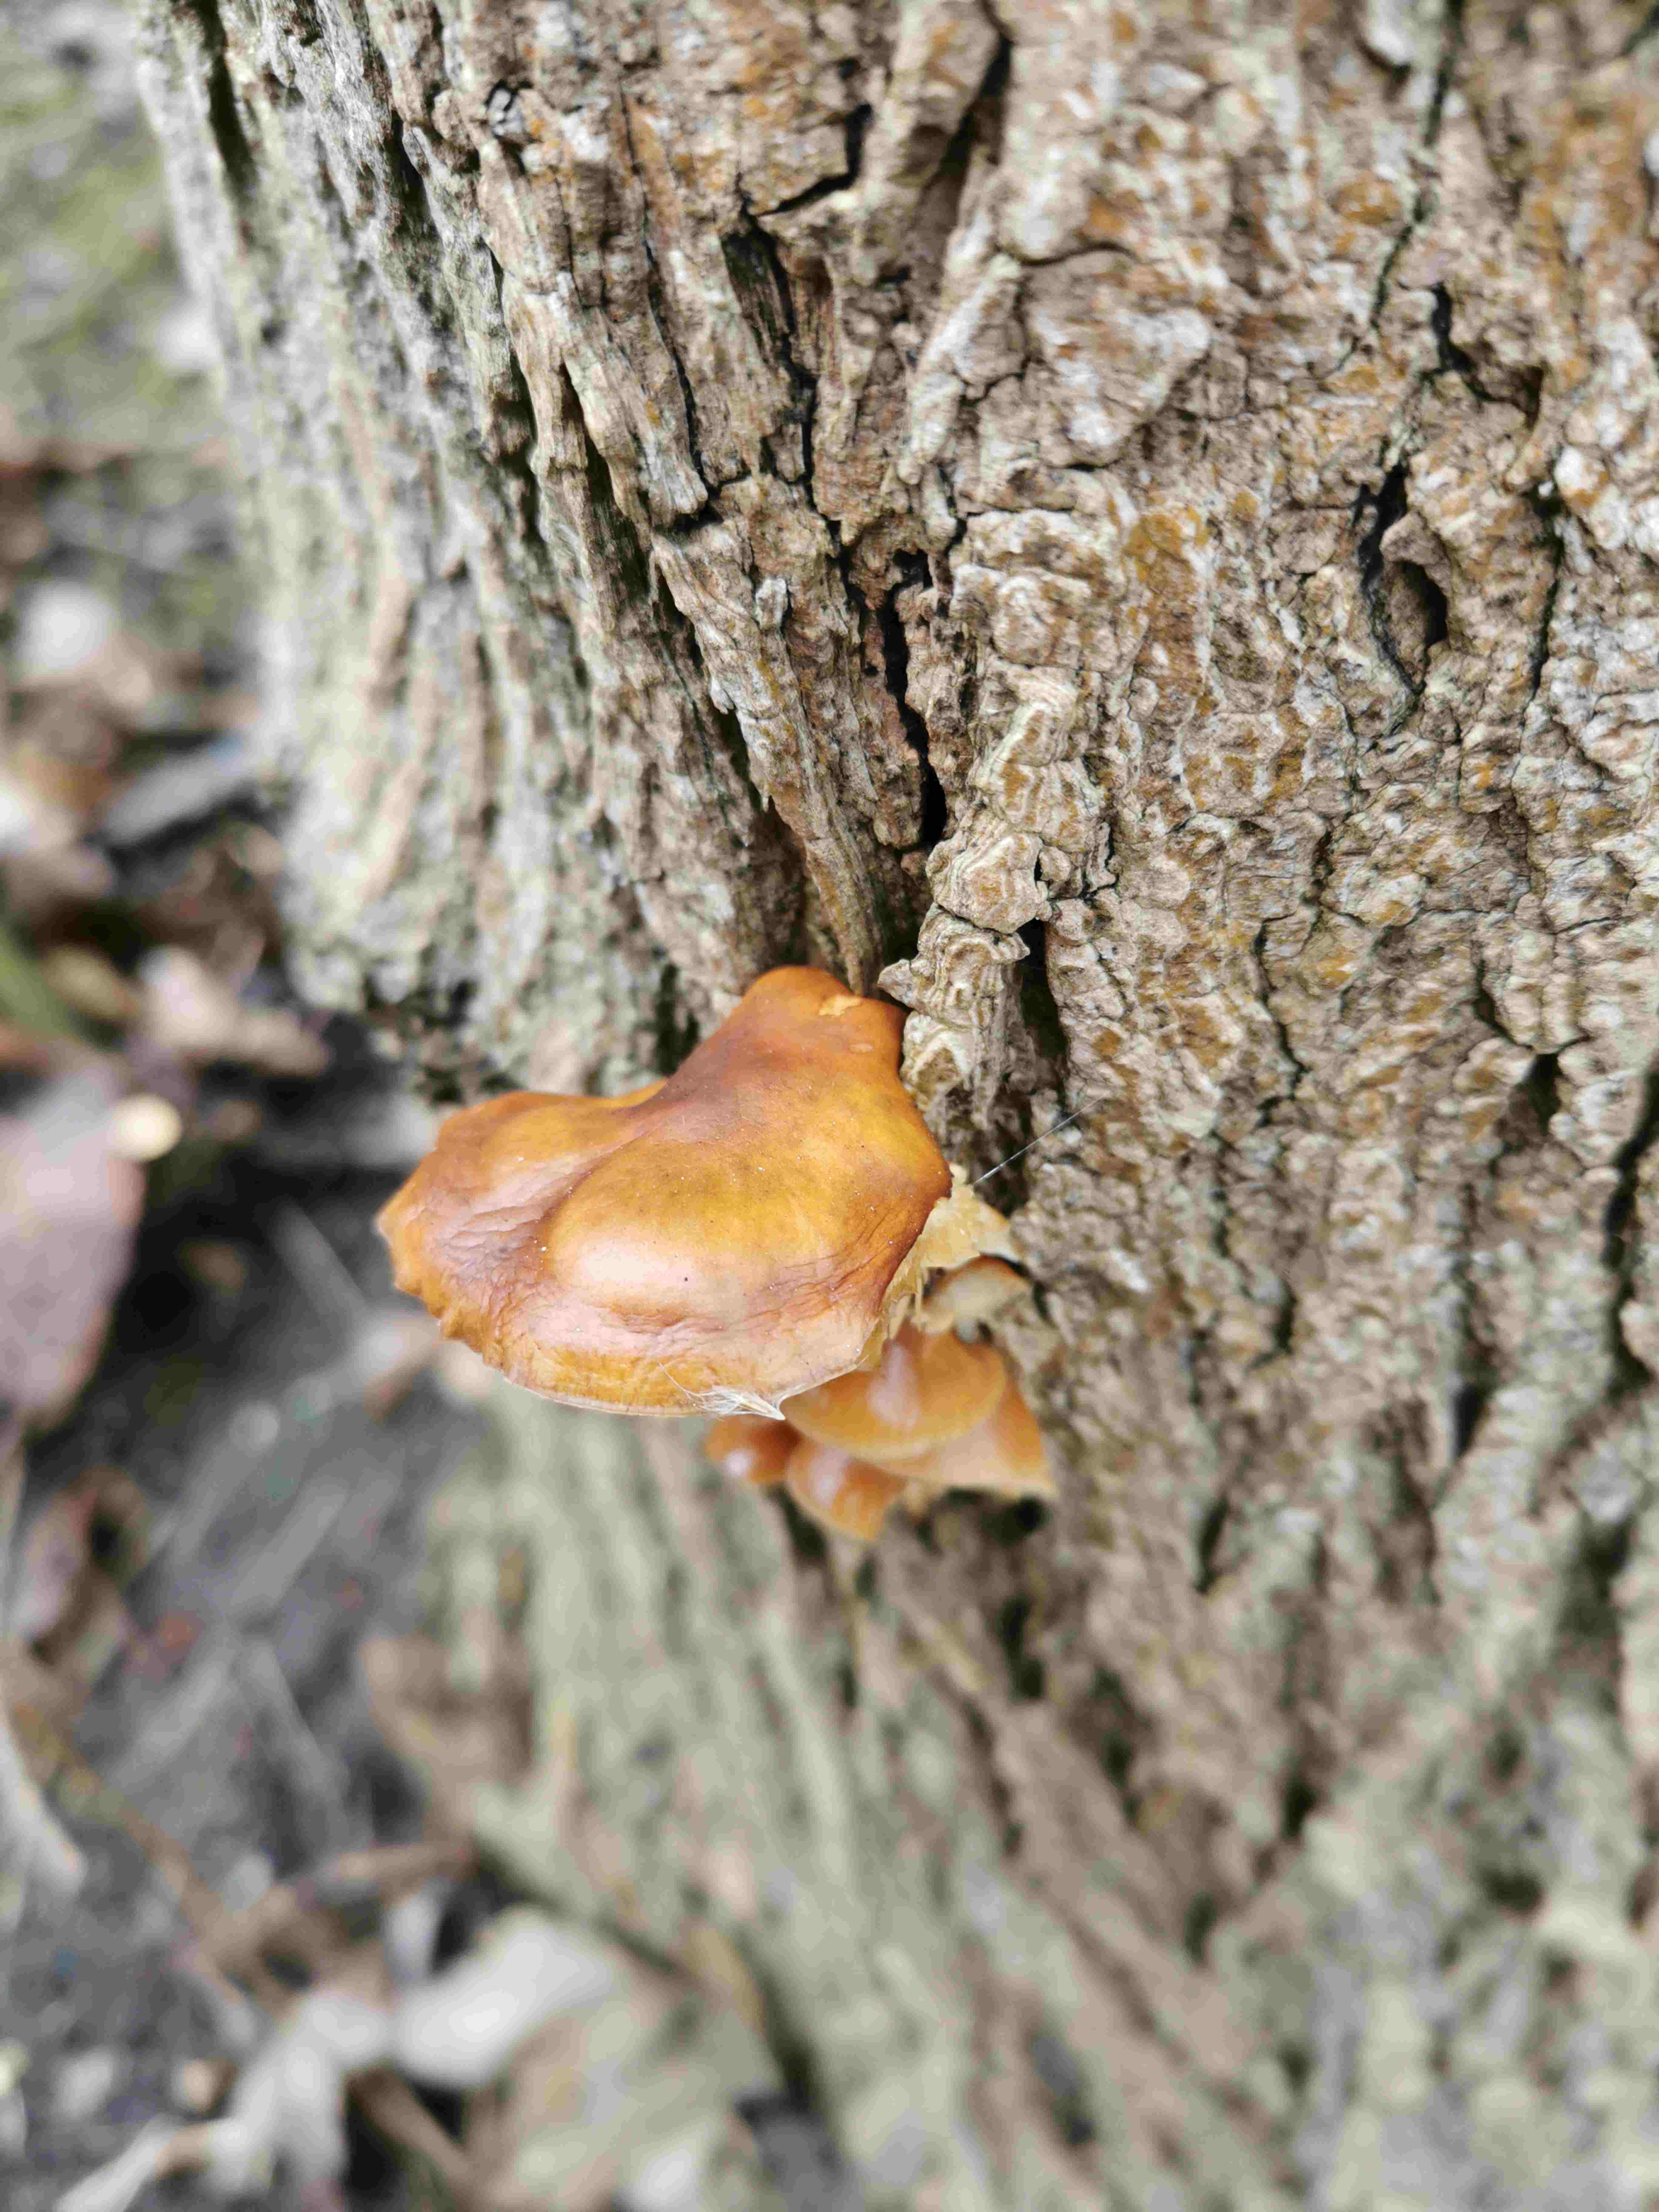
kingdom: Fungi
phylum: Basidiomycota
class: Agaricomycetes
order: Agaricales
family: Physalacriaceae
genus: Flammulina
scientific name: Flammulina
